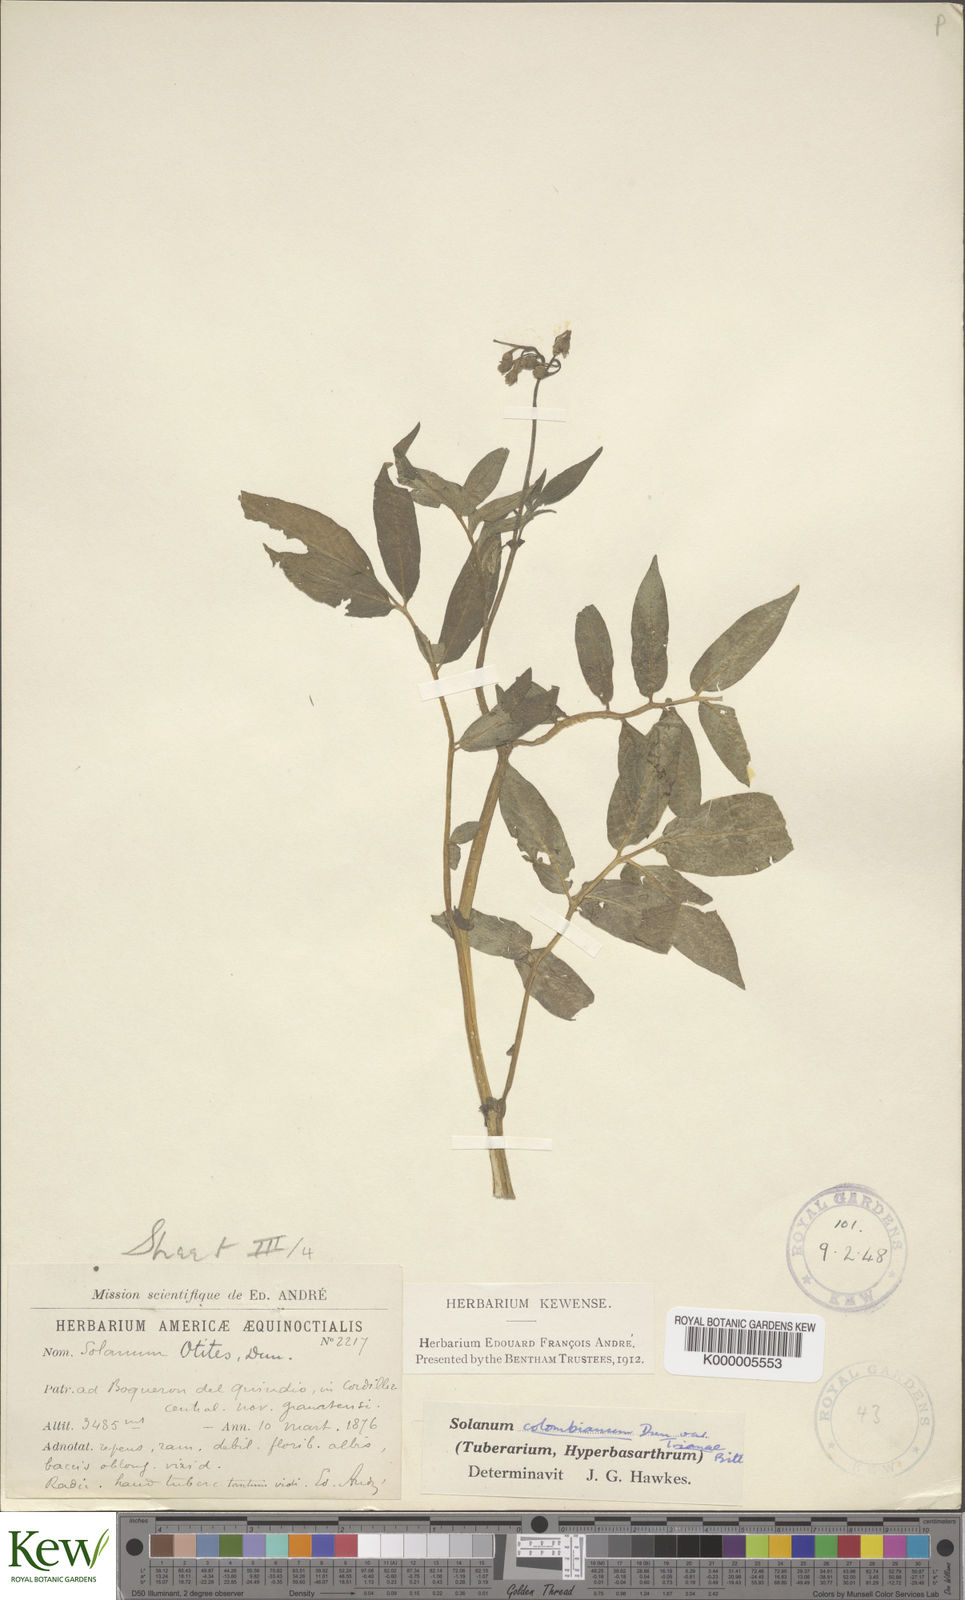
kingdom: Plantae
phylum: Tracheophyta
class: Magnoliopsida
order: Solanales
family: Solanaceae
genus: Solanum
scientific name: Solanum colombianum
